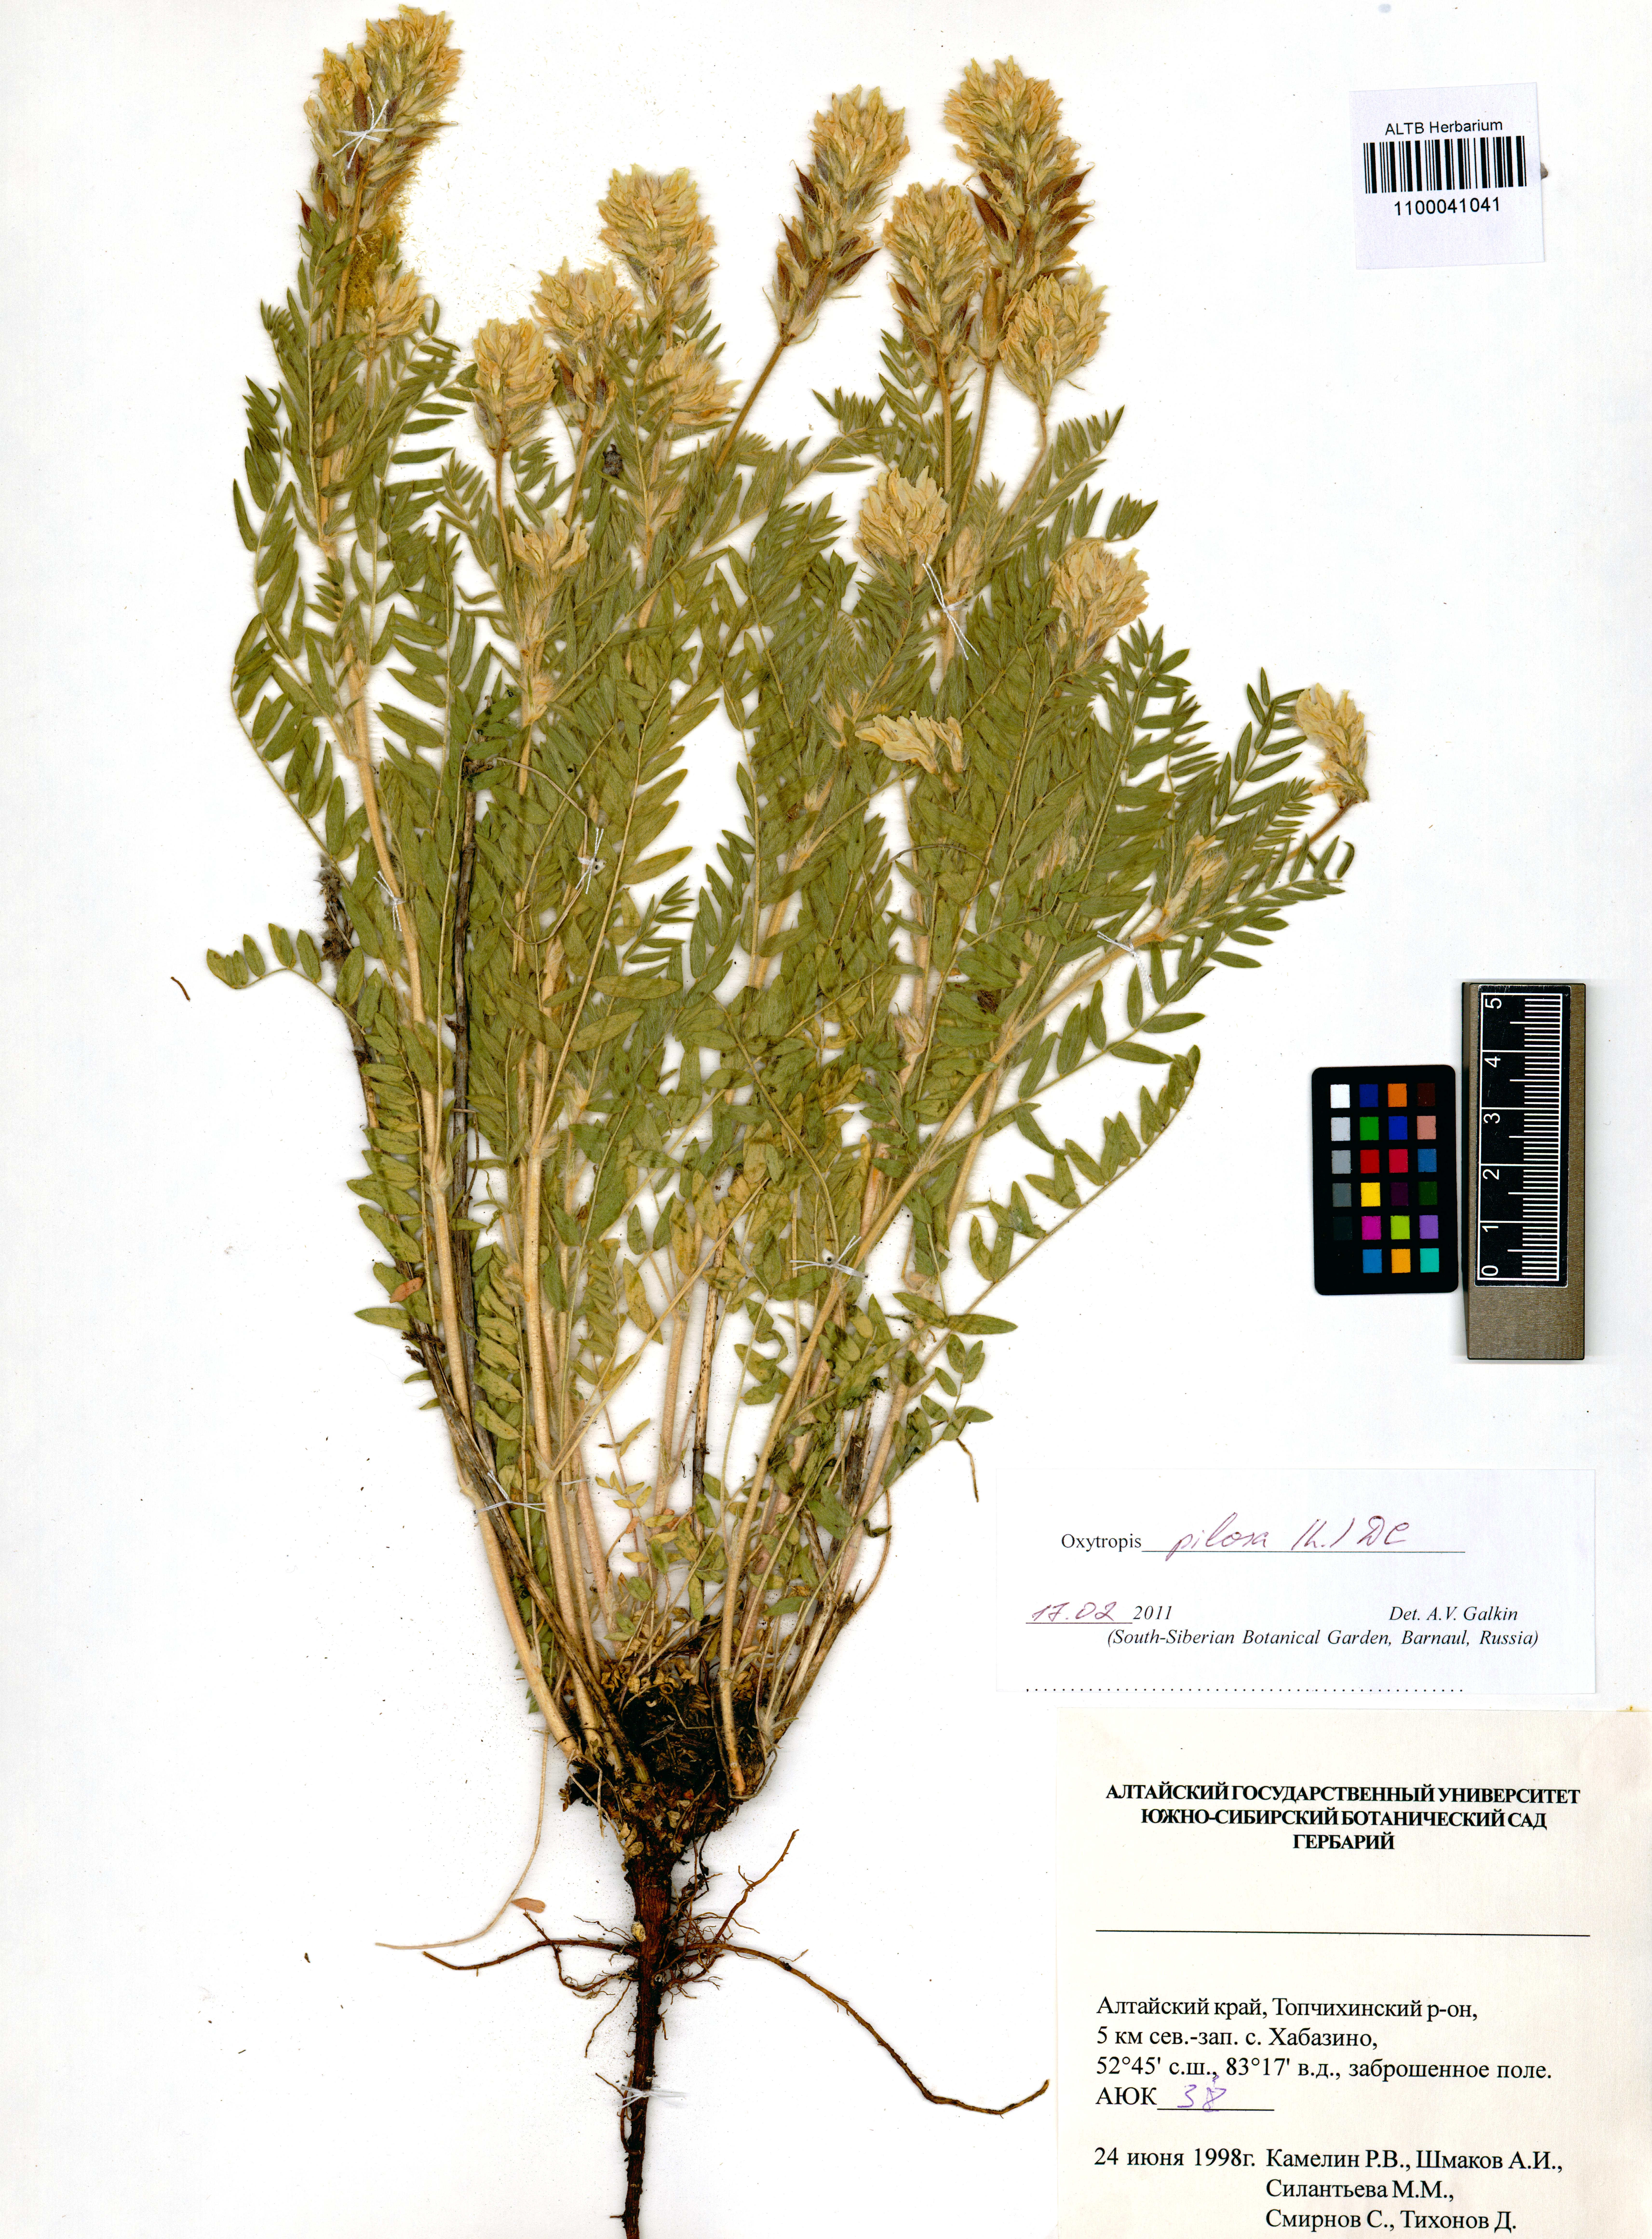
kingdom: Plantae
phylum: Tracheophyta
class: Magnoliopsida
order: Fabales
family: Fabaceae
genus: Oxytropis
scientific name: Oxytropis pilosa
